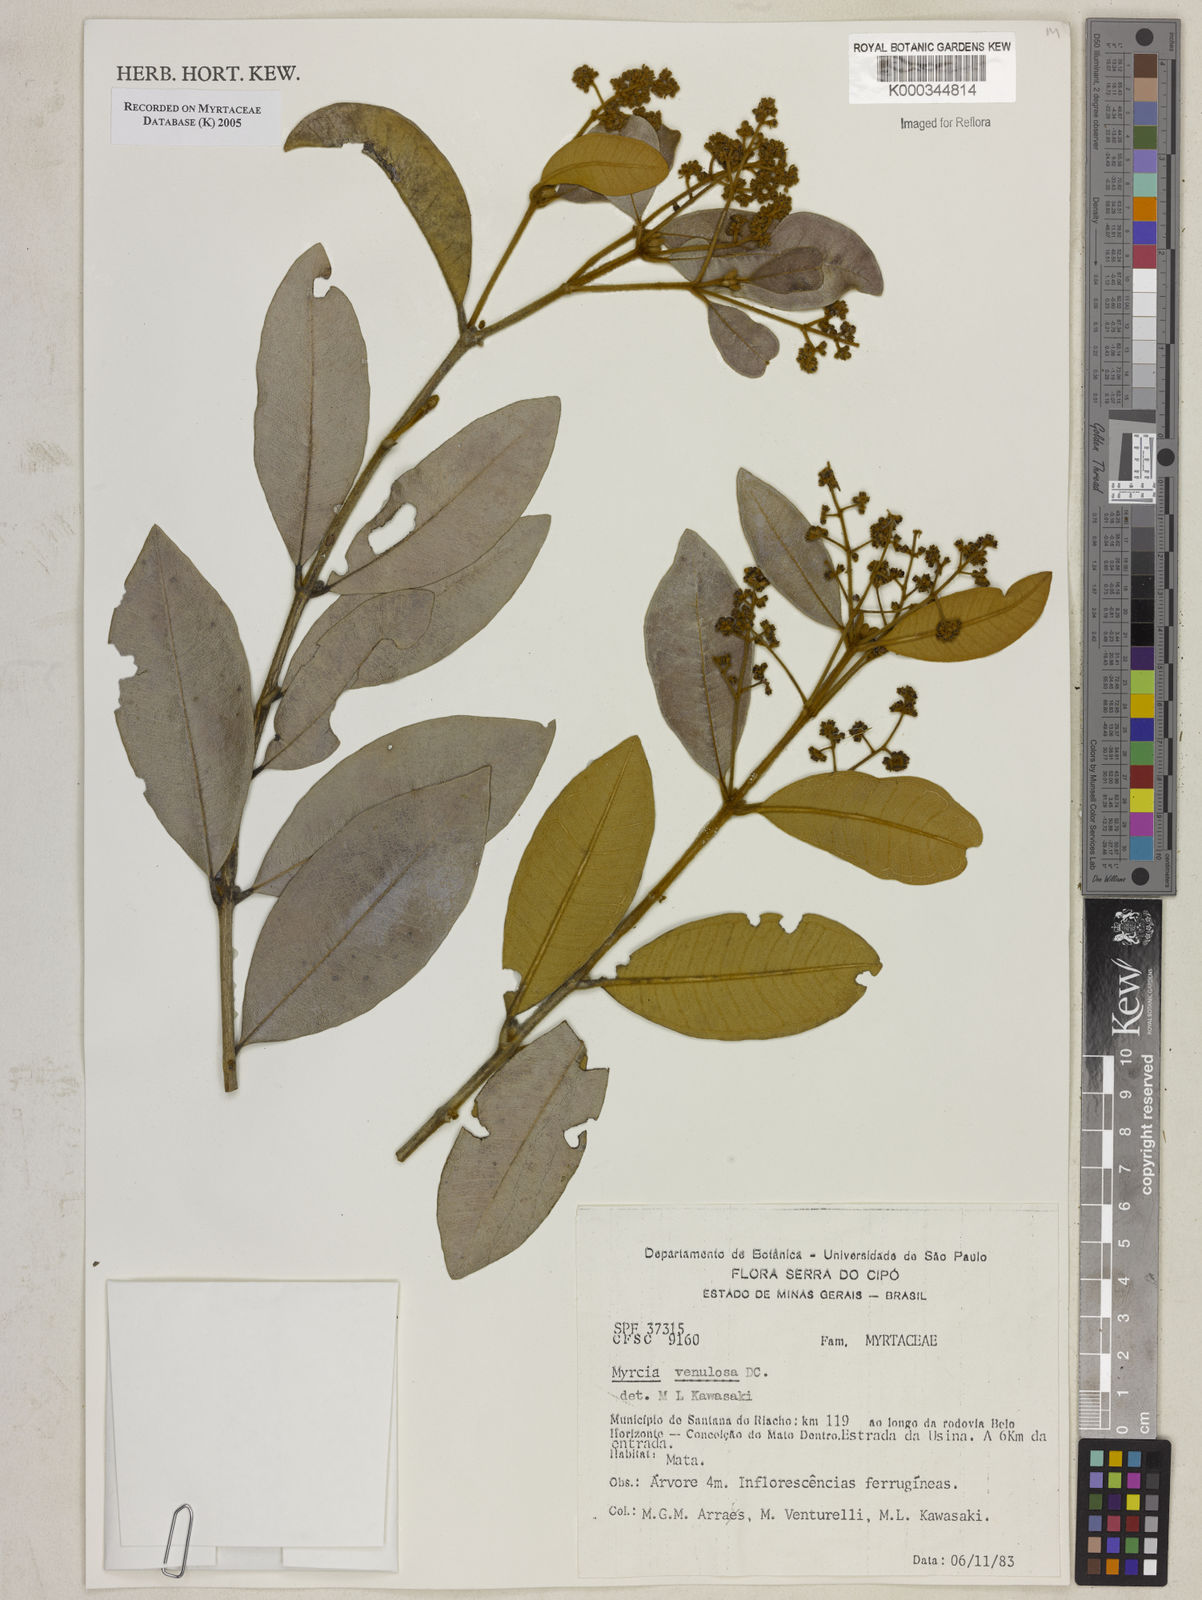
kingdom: Plantae
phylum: Tracheophyta
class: Magnoliopsida
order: Myrtales
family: Myrtaceae
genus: Myrcia
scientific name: Myrcia venulosa
